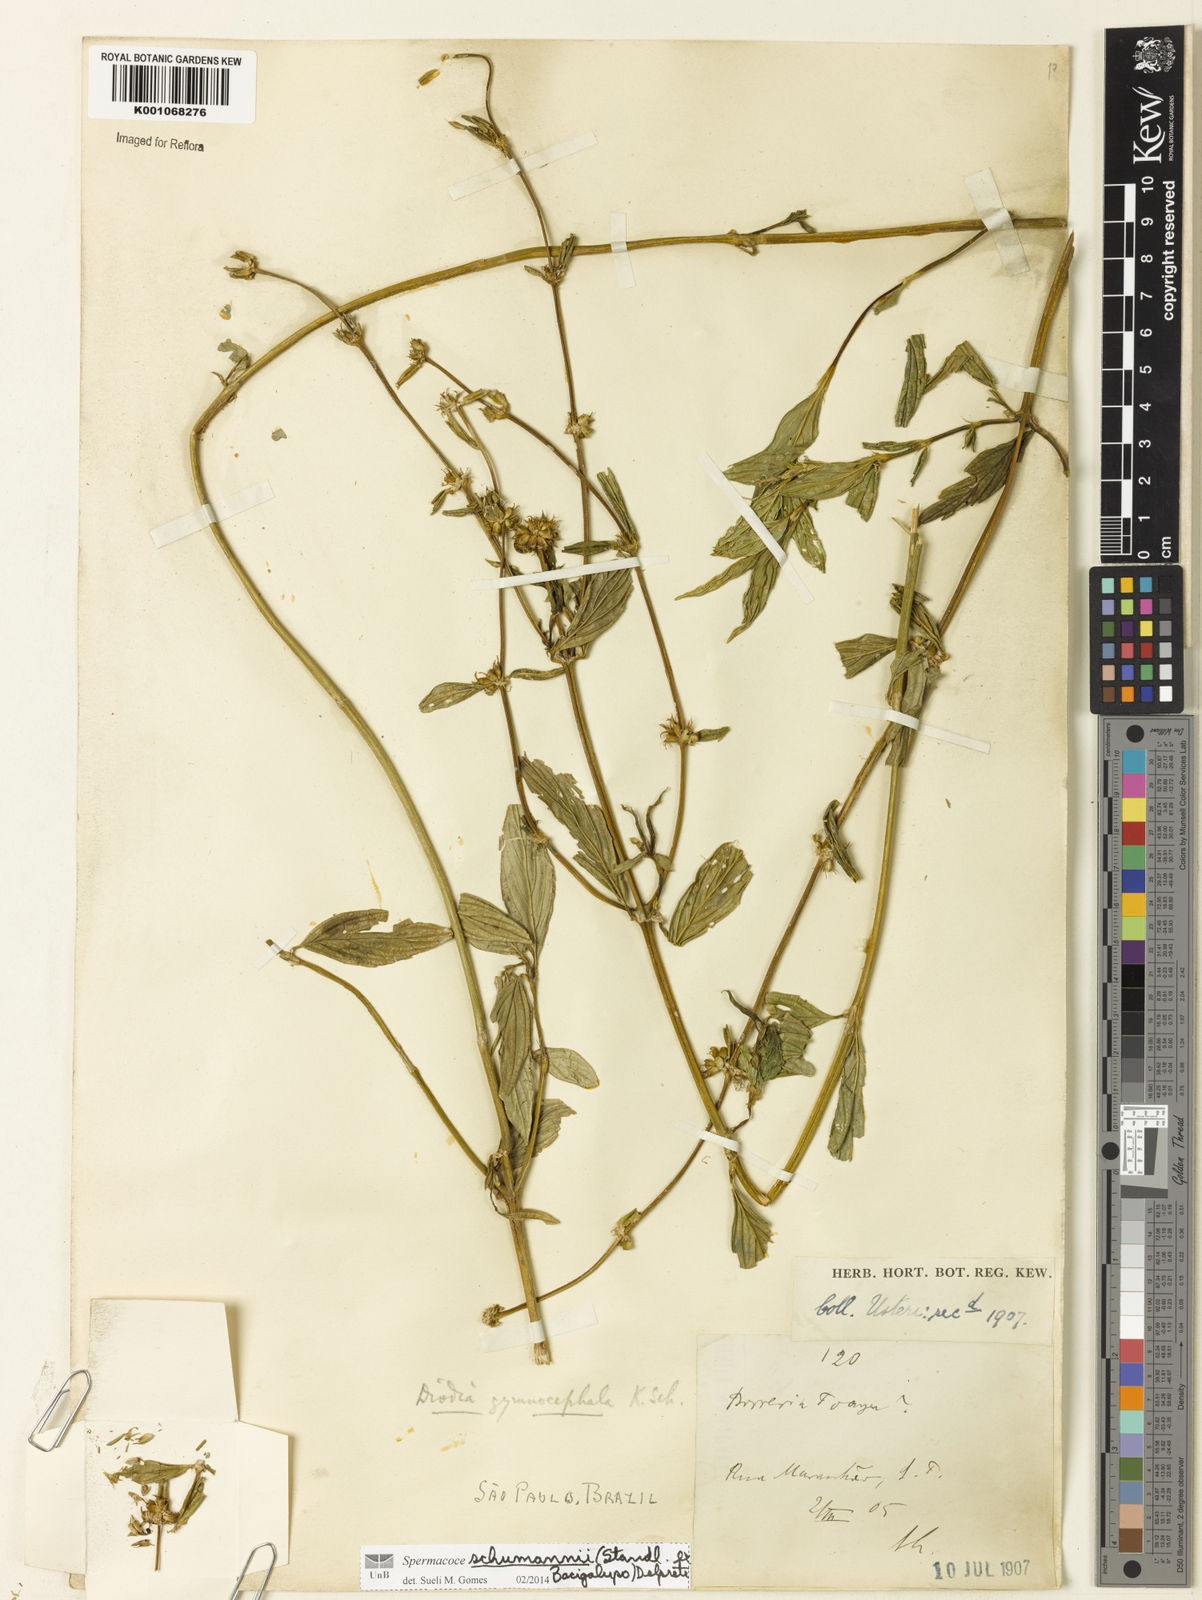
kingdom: Plantae
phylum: Tracheophyta
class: Magnoliopsida
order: Gentianales
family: Rubiaceae
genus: Spermacoce
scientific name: Spermacoce schumannii
